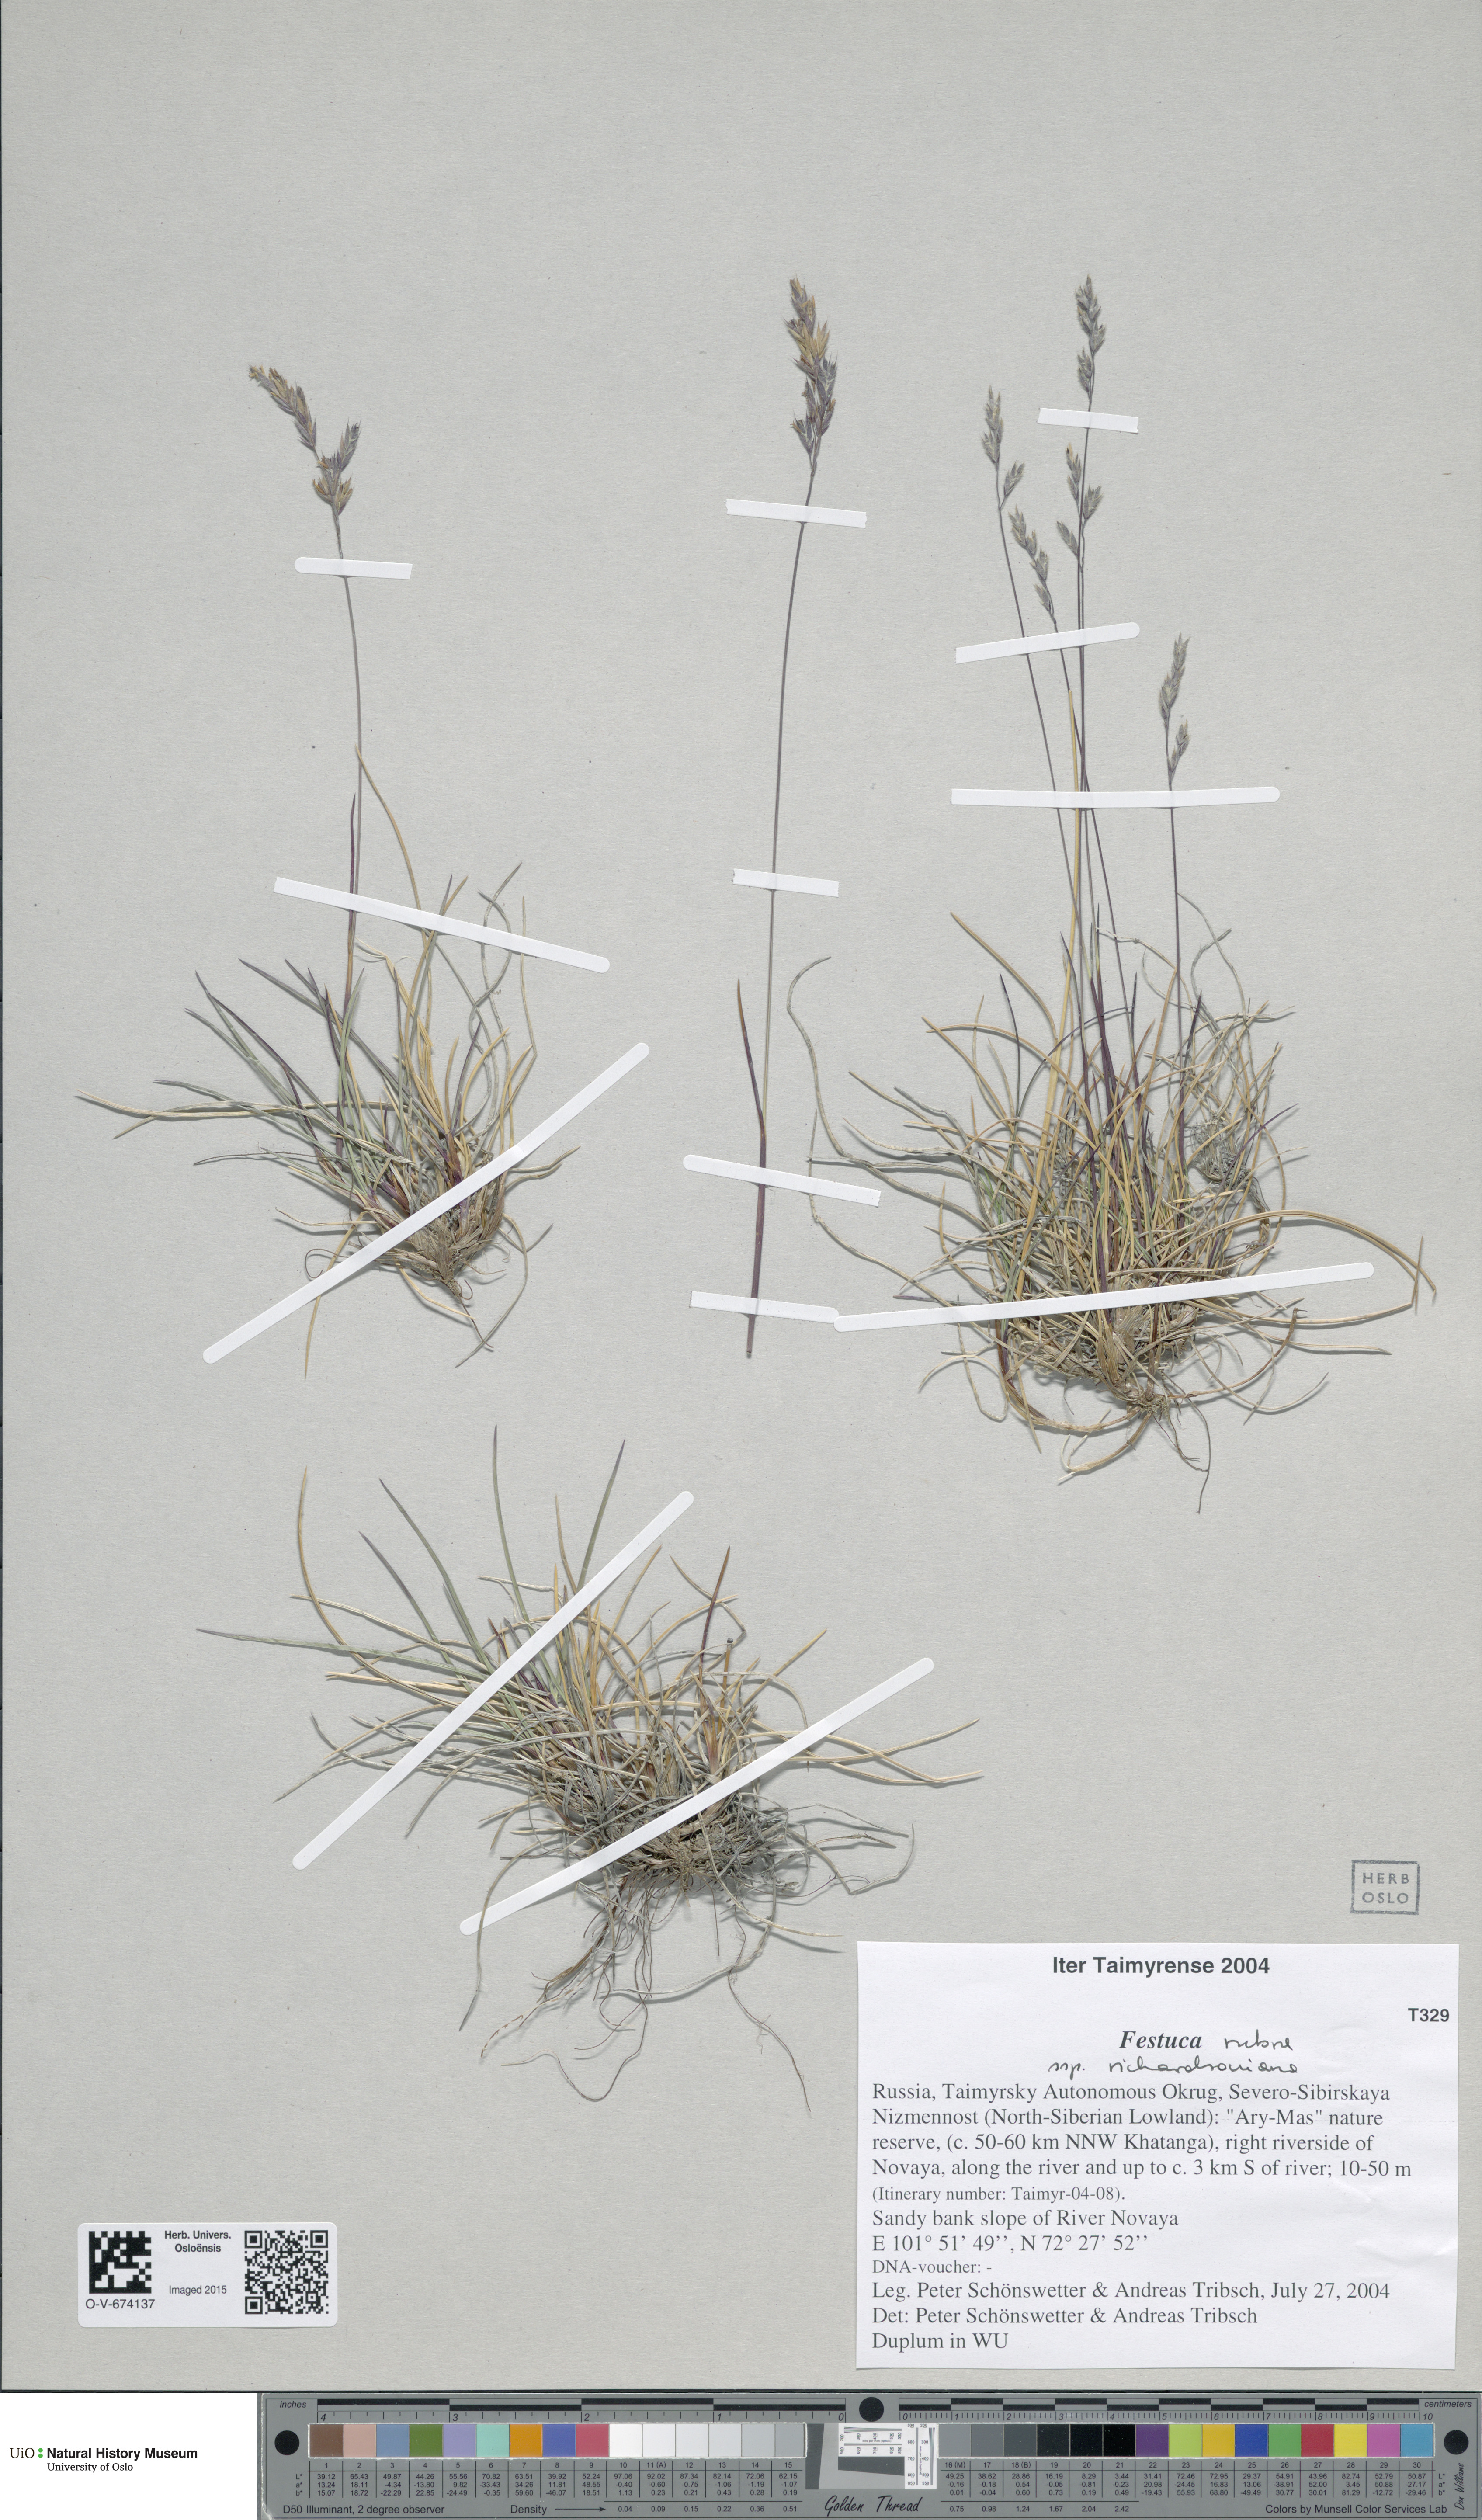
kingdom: Plantae
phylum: Tracheophyta
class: Liliopsida
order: Poales
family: Poaceae
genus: Festuca
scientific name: Festuca richardsonii
